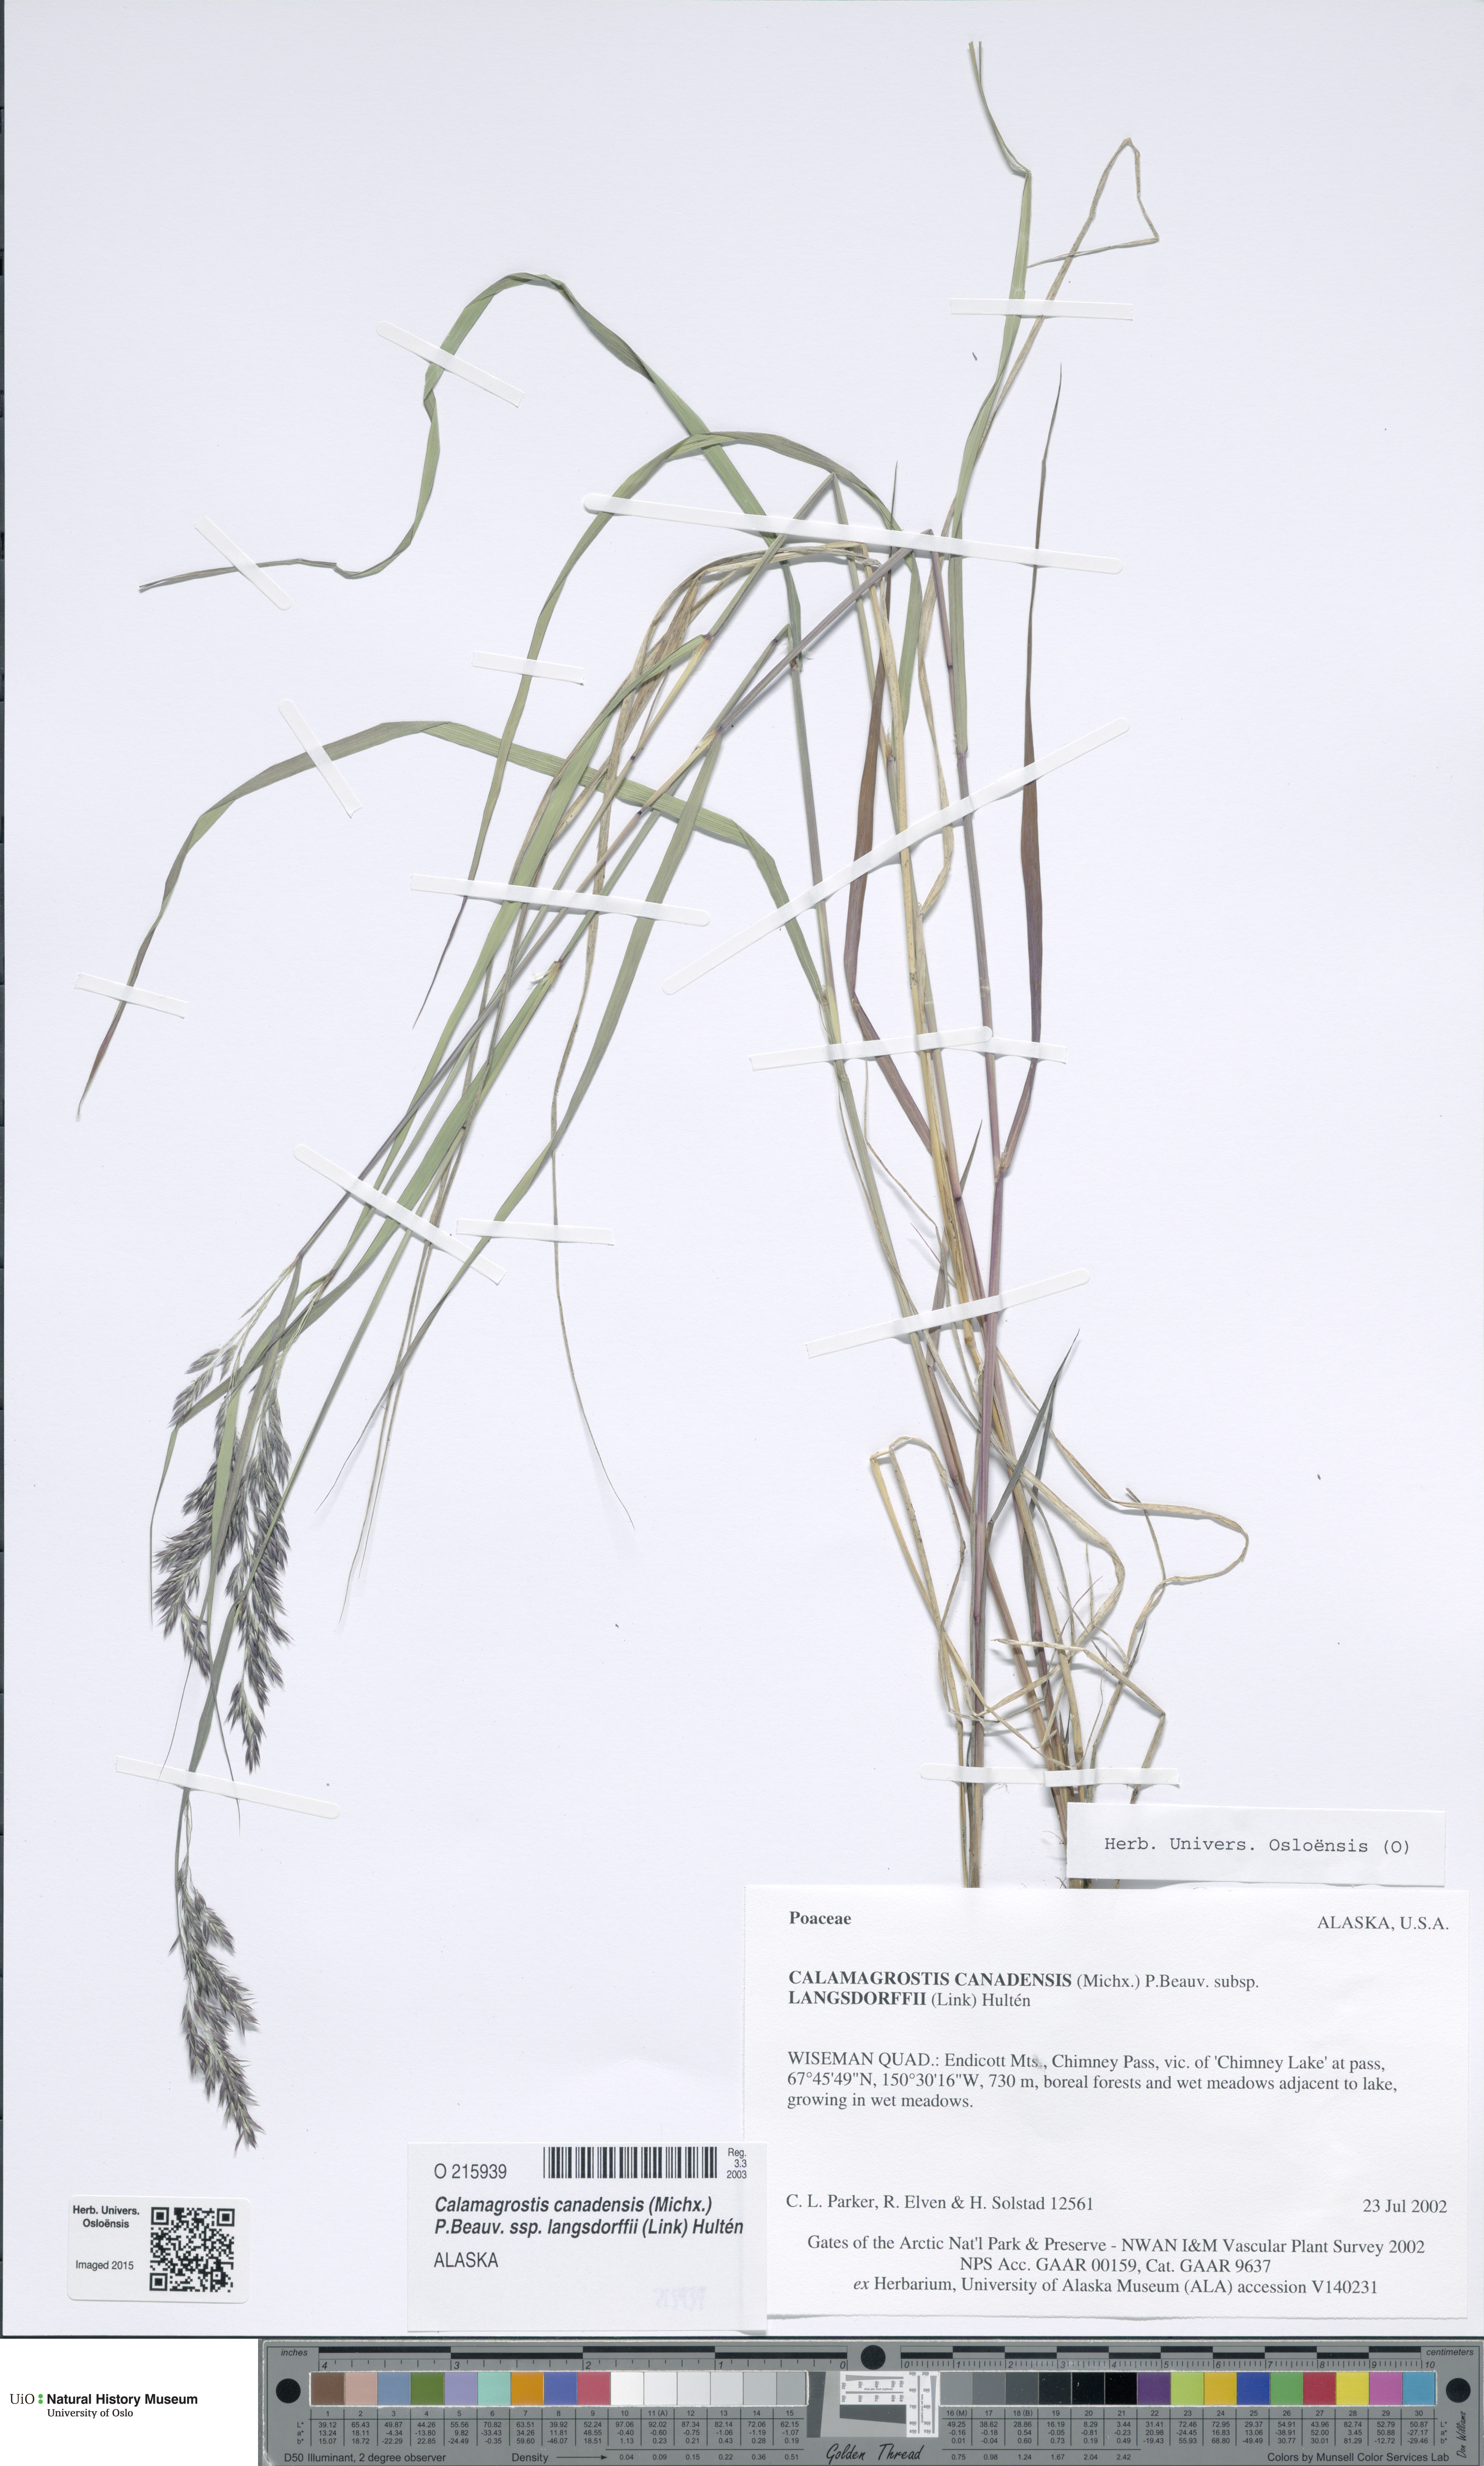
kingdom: Plantae
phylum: Tracheophyta
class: Liliopsida
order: Poales
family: Poaceae
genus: Calamagrostis
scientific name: Calamagrostis purpurea
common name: Scandinavian small-reed
